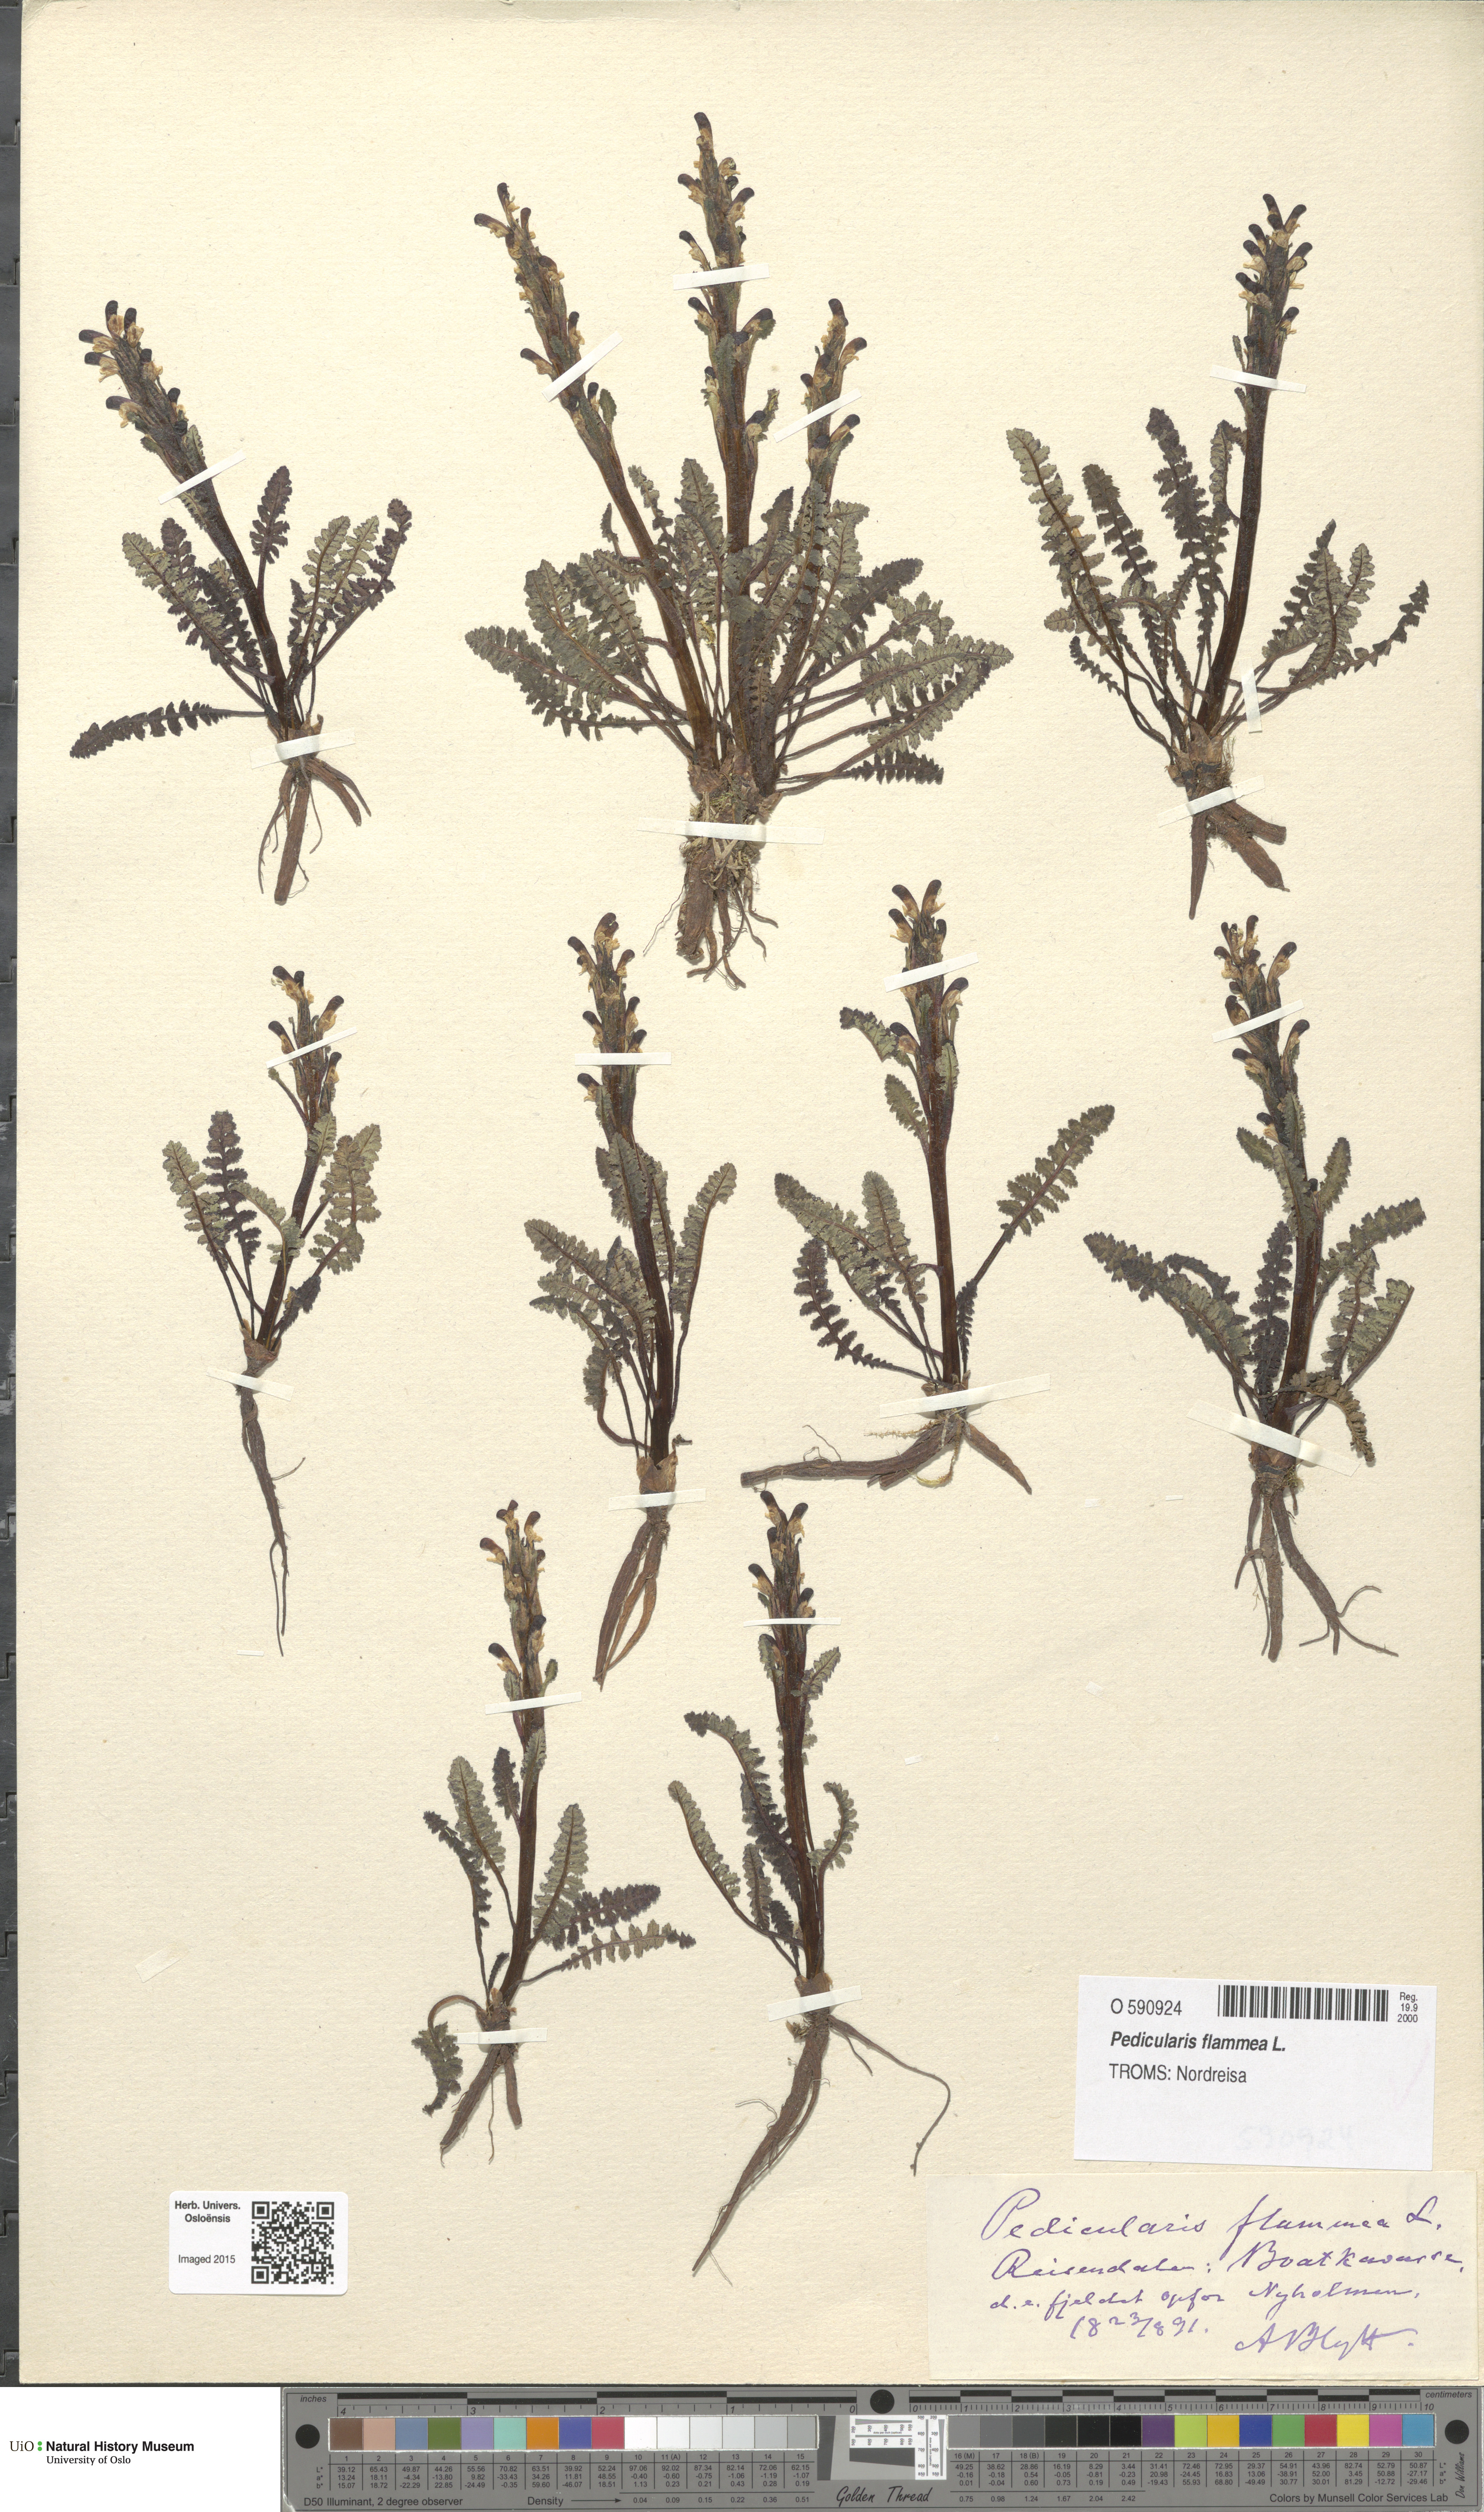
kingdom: Plantae
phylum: Tracheophyta
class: Magnoliopsida
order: Lamiales
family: Orobanchaceae
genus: Pedicularis
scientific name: Pedicularis flammea
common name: Flame-coloured lousewort
